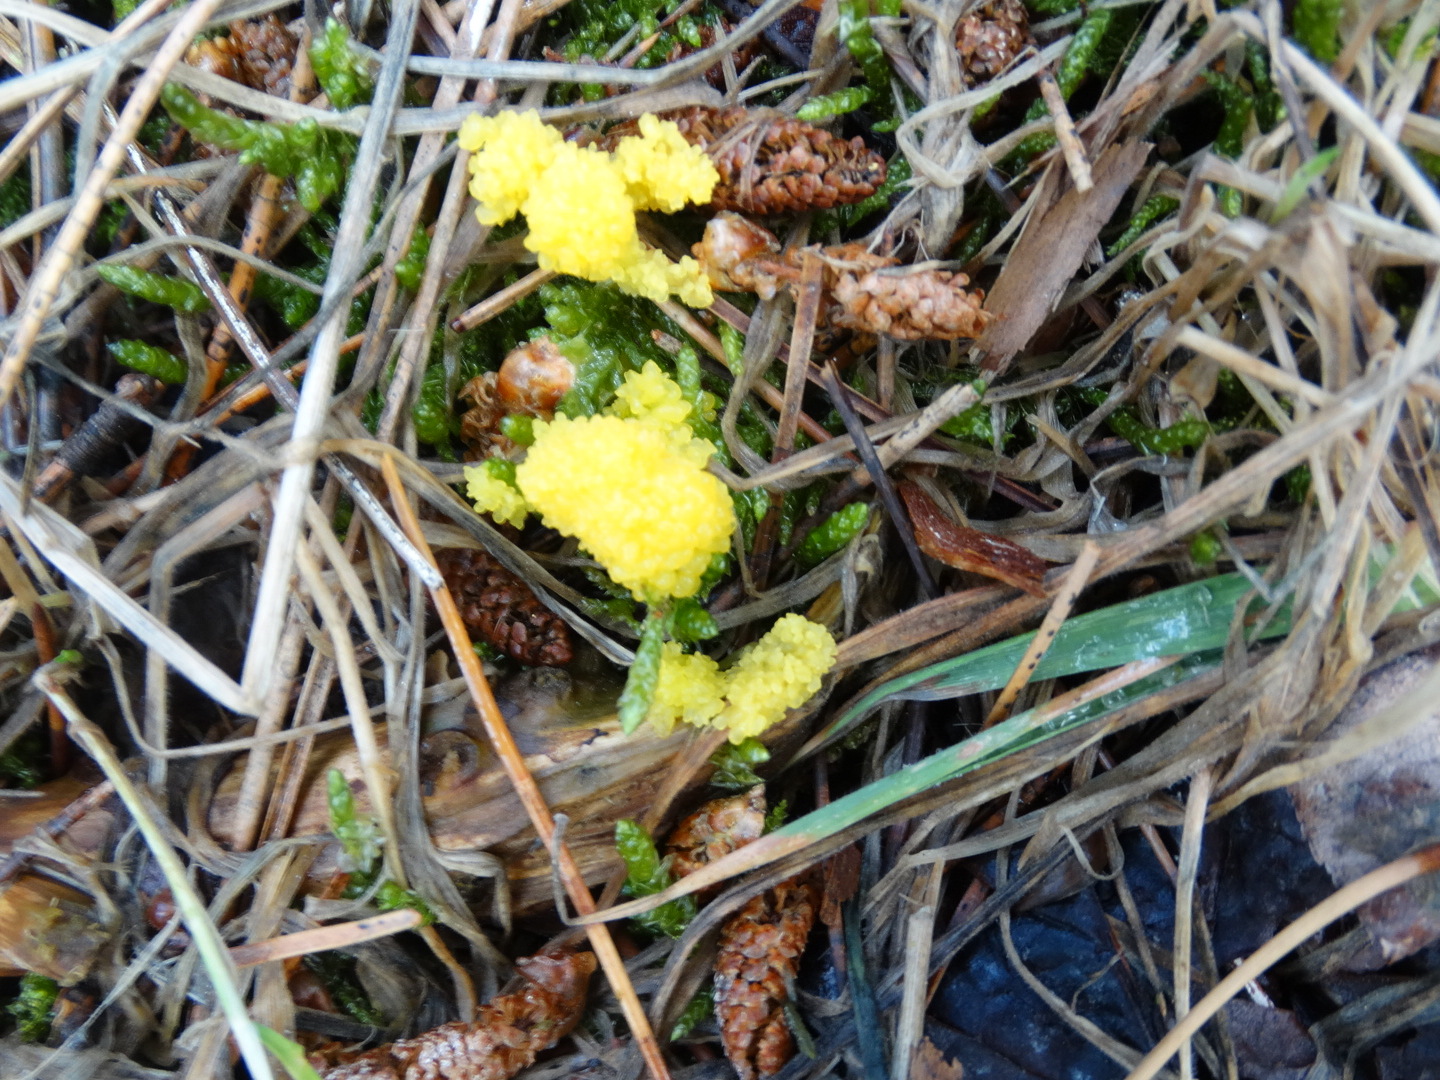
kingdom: Protozoa
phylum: Mycetozoa
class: Myxomycetes
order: Physarales
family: Physaraceae
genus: Fuligo
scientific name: Fuligo septica
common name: gul troldsmør
